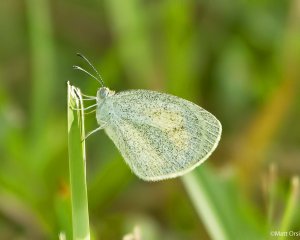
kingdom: Animalia
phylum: Arthropoda
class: Insecta
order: Lepidoptera
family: Pieridae
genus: Eurema
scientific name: Eurema daira
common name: Barred Yellow
